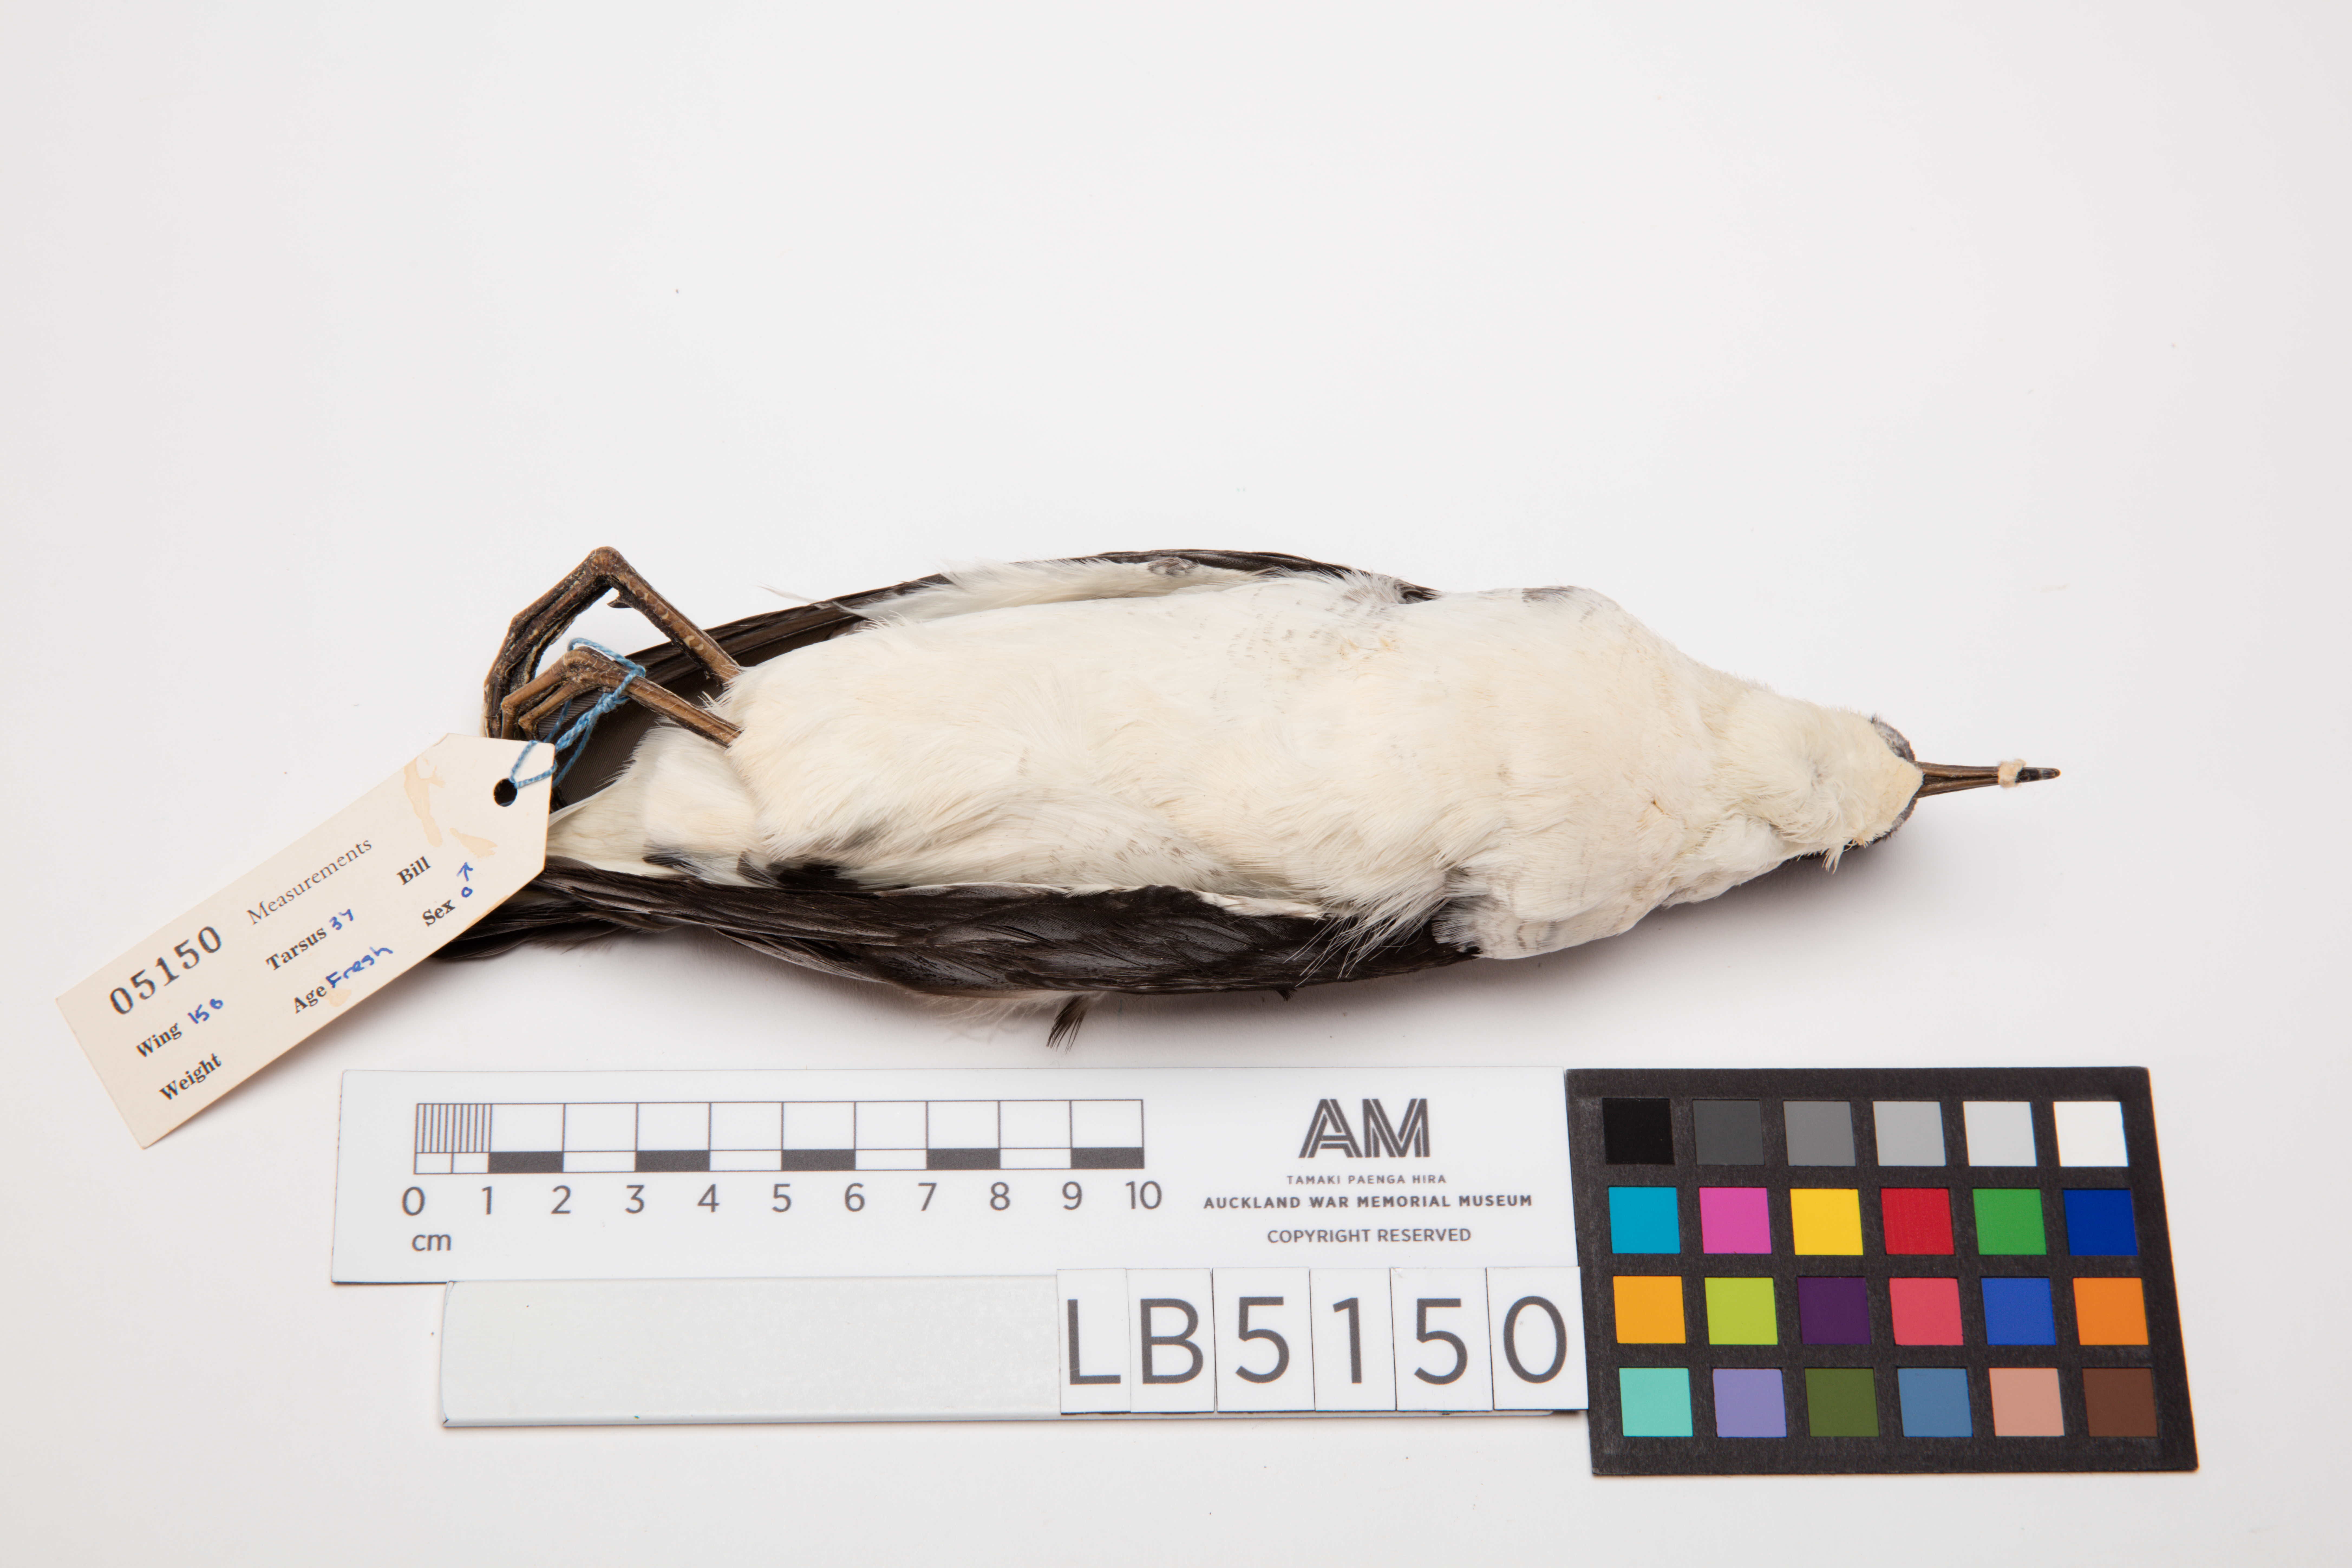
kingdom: Animalia
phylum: Chordata
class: Aves
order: Procellariiformes
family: Procellariidae
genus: Puffinus
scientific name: Puffinus assimilis
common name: Little shearwater
